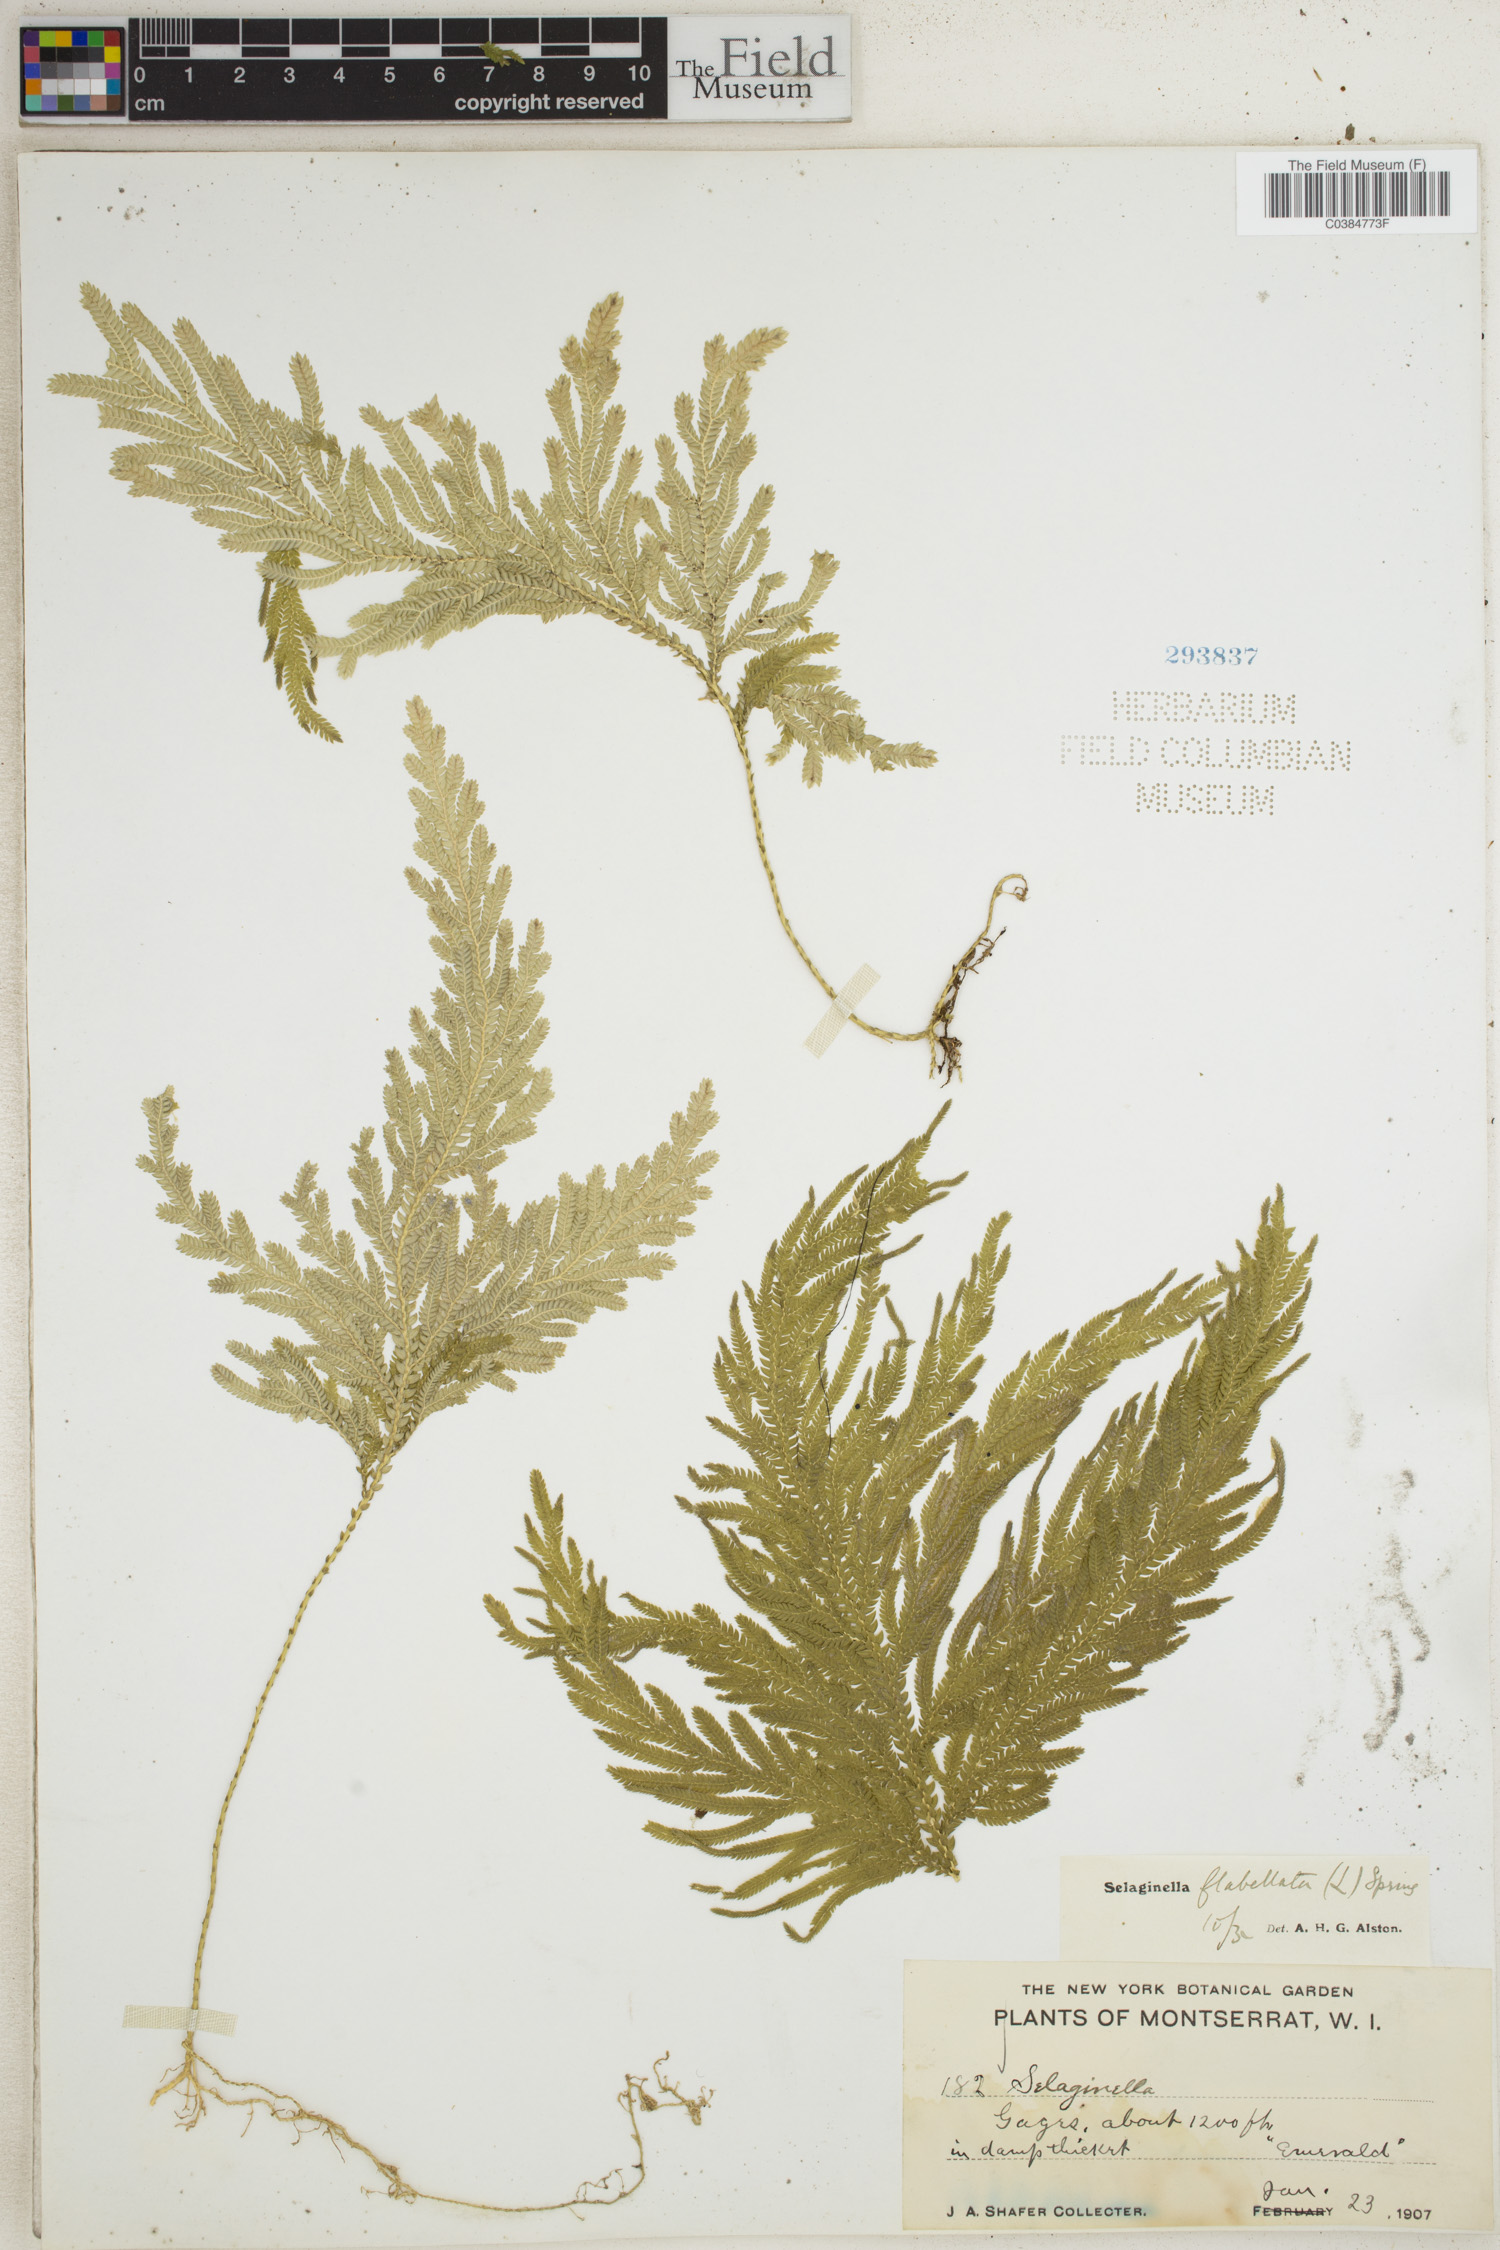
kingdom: Plantae
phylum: Tracheophyta
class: Lycopodiopsida
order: Selaginellales
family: Selaginellaceae
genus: Selaginella
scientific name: Selaginella flabellata
